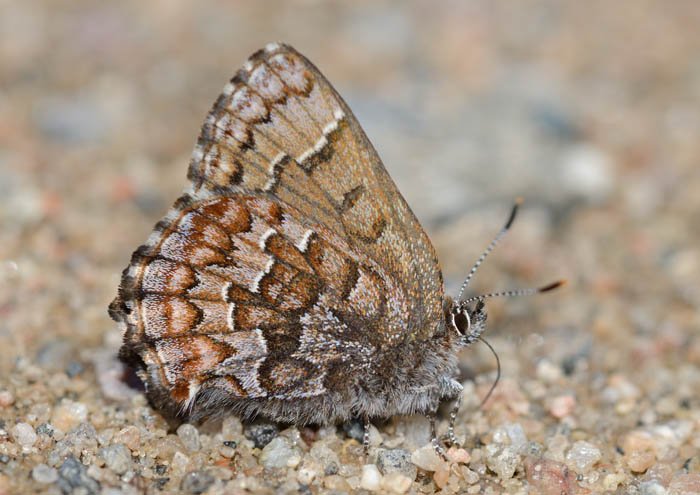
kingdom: Animalia
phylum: Arthropoda
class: Insecta
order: Lepidoptera
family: Lycaenidae
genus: Incisalia
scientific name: Incisalia niphon
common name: Eastern Pine Elfin
